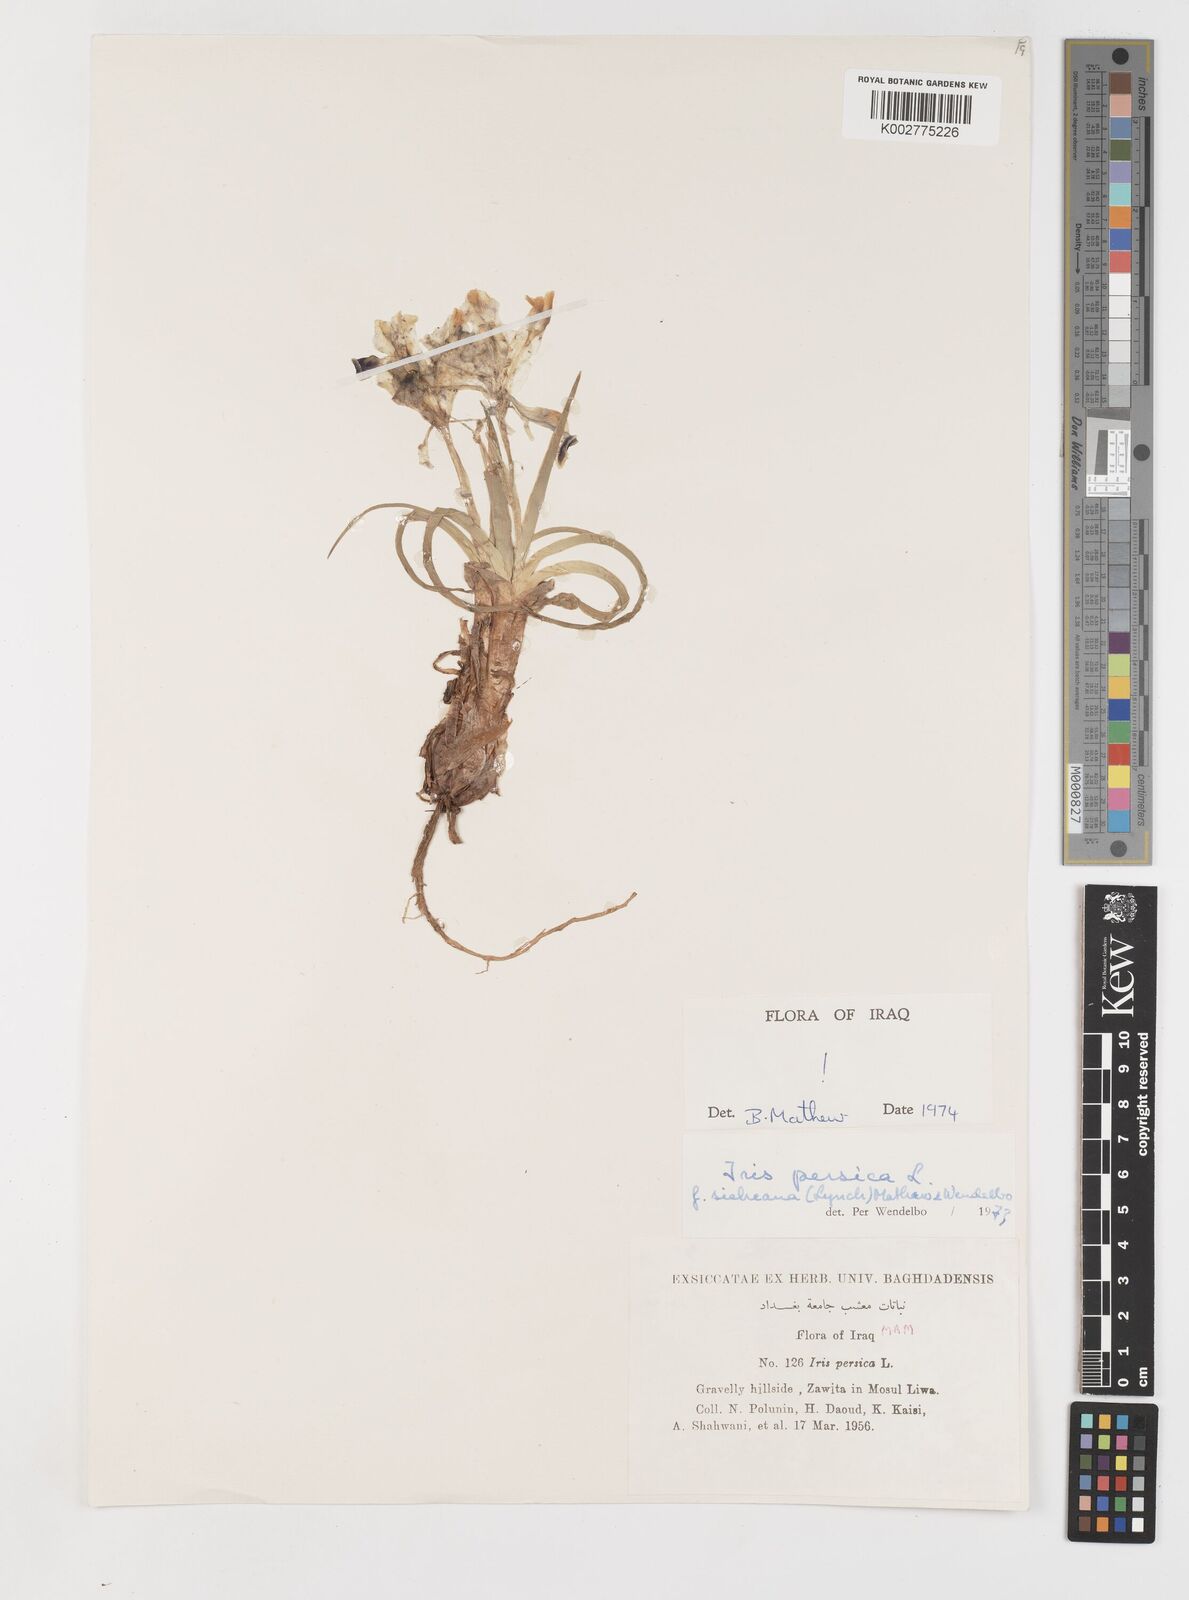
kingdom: Plantae
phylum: Tracheophyta
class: Liliopsida
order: Asparagales
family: Iridaceae
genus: Iris
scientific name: Iris persica
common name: Persian iris
